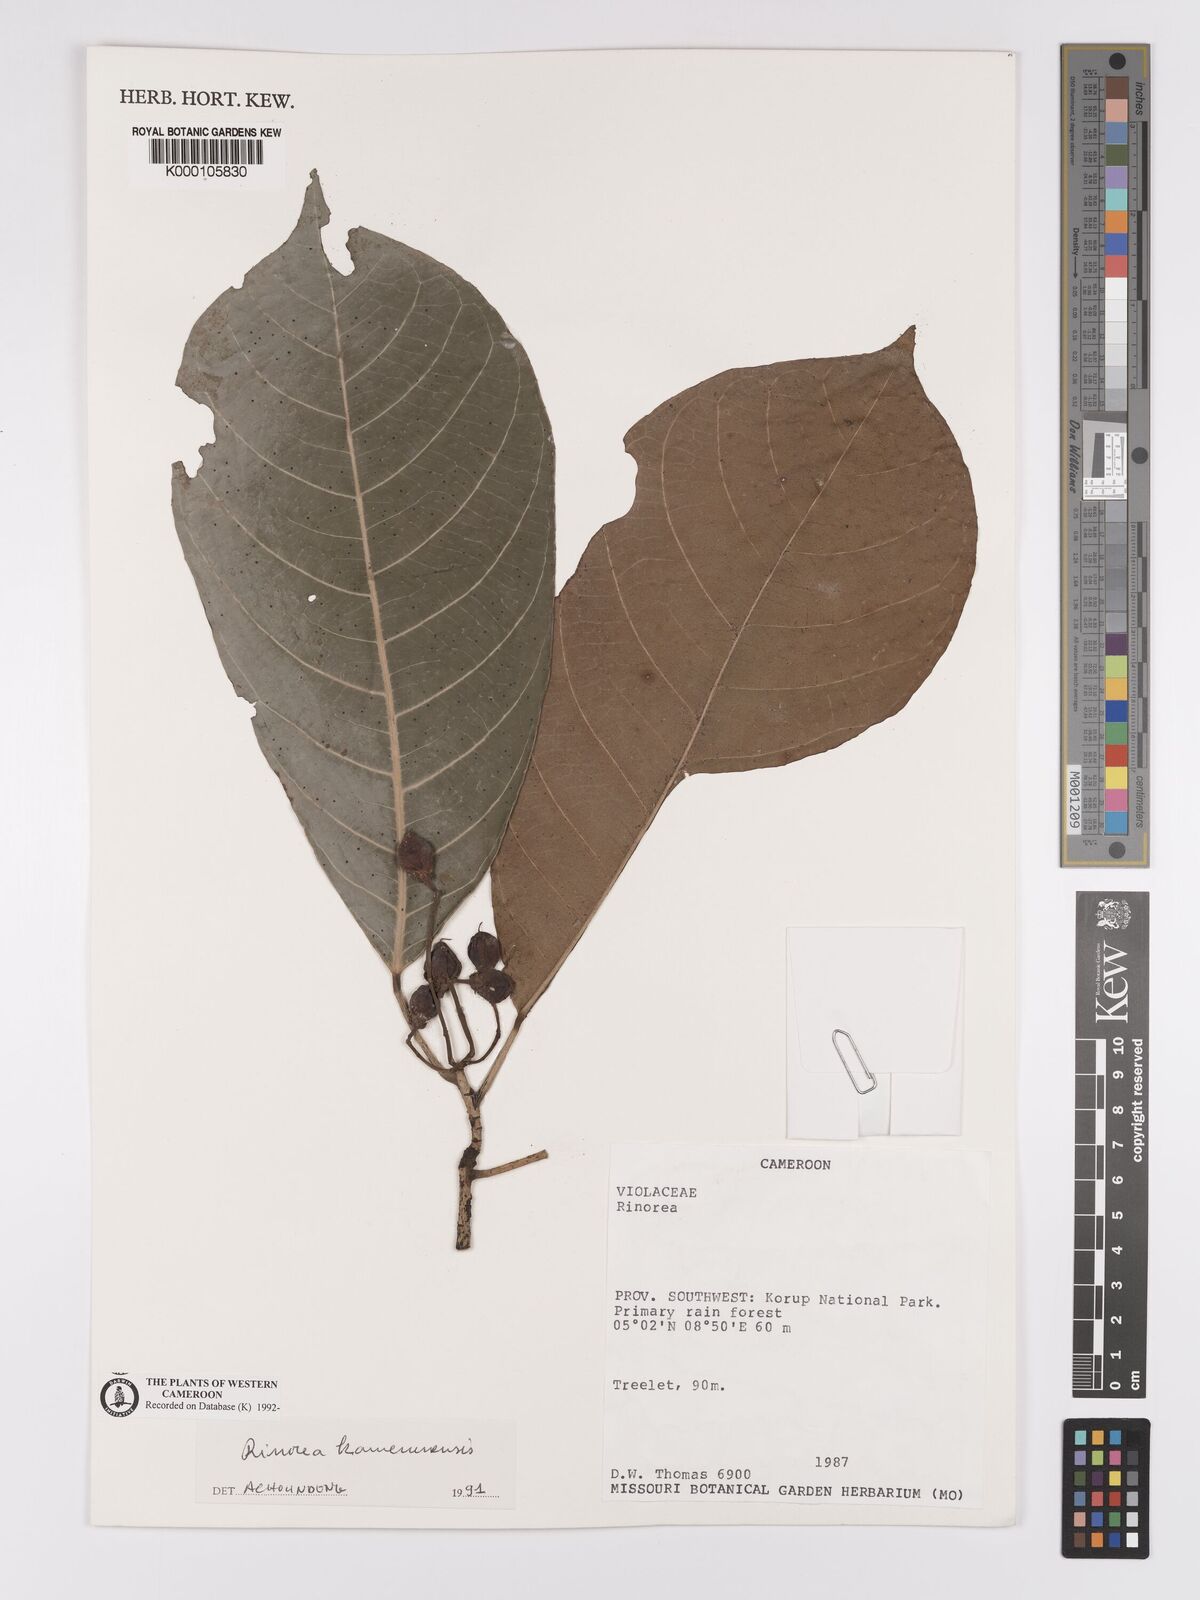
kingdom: Plantae
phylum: Tracheophyta
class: Magnoliopsida
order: Malpighiales
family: Violaceae
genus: Rinorea
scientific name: Rinorea kamerunensis
